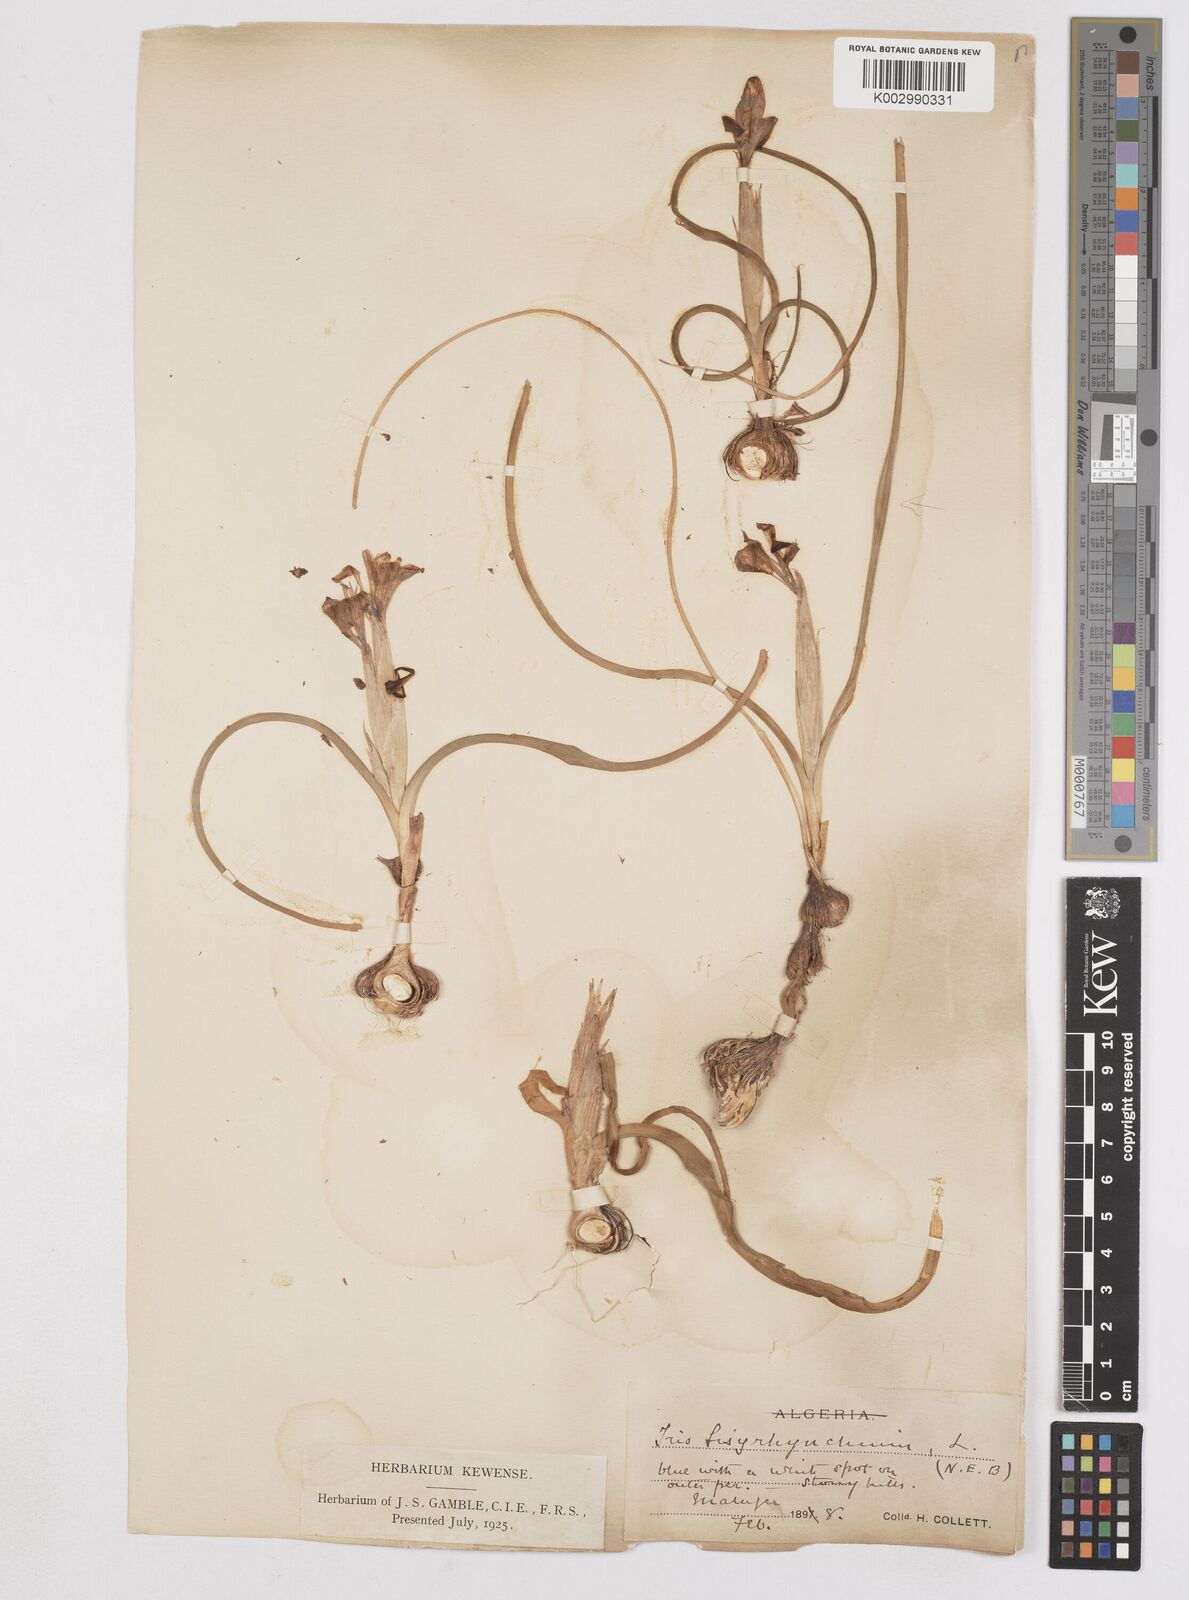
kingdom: Plantae
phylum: Tracheophyta
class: Liliopsida
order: Asparagales
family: Iridaceae
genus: Moraea
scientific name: Moraea sisyrinchium
